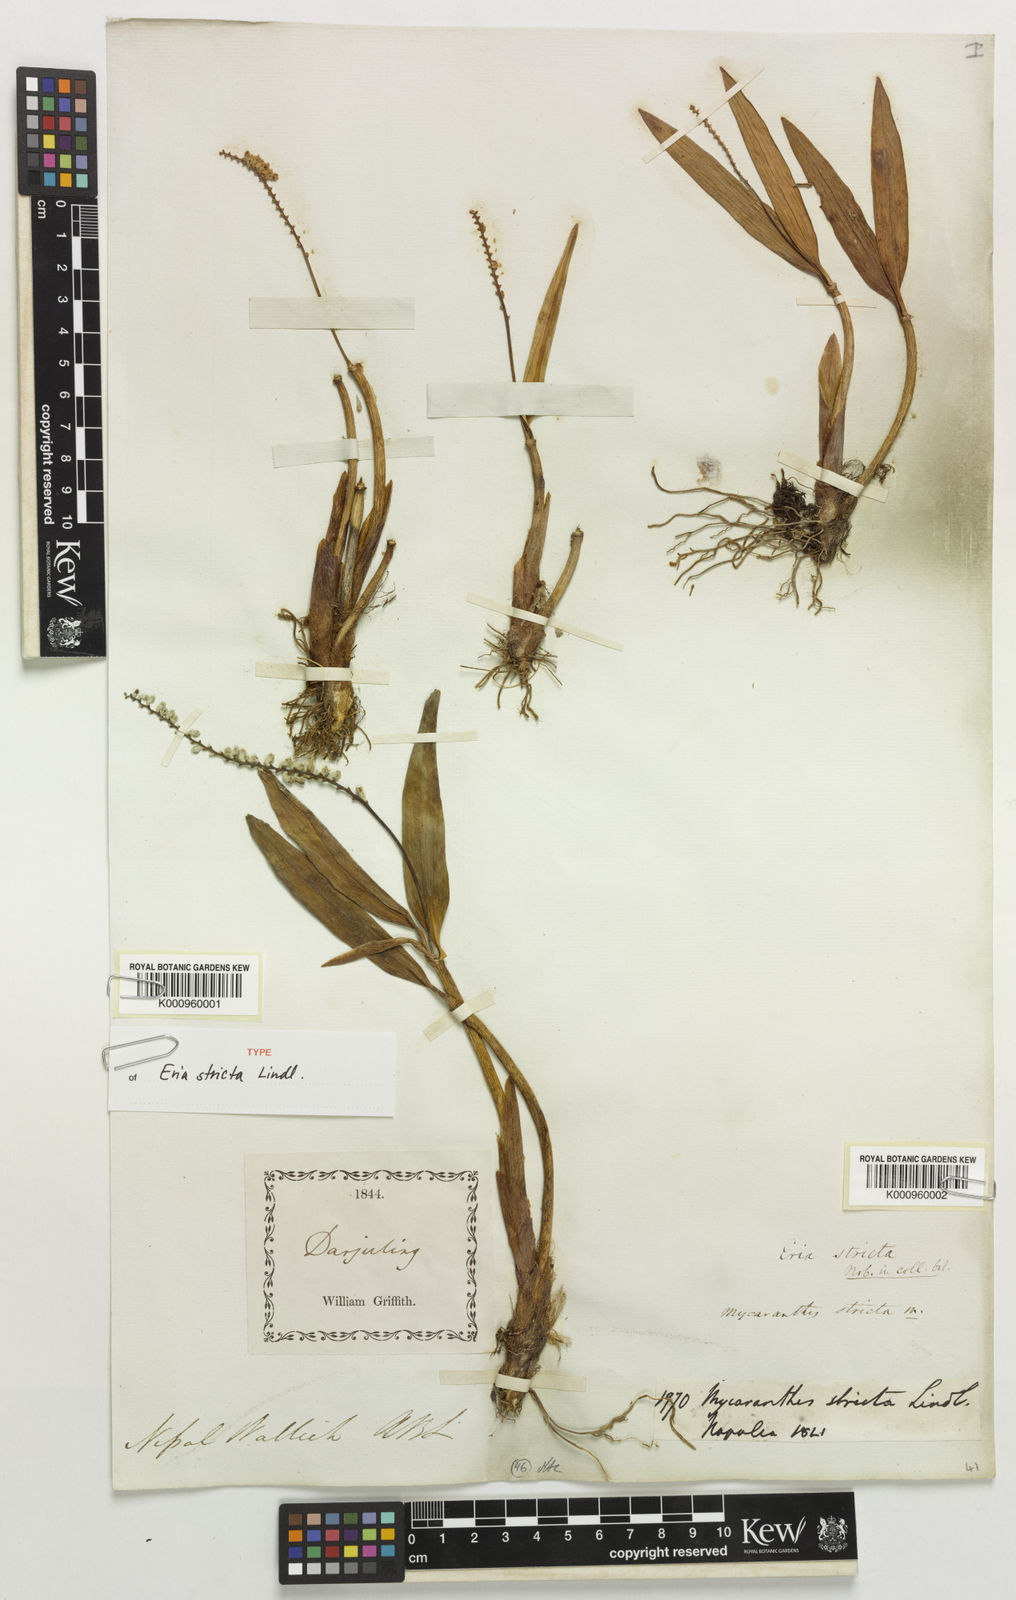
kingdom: Plantae
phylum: Tracheophyta
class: Liliopsida
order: Asparagales
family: Orchidaceae
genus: Cryptochilus
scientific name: Cryptochilus strictus
